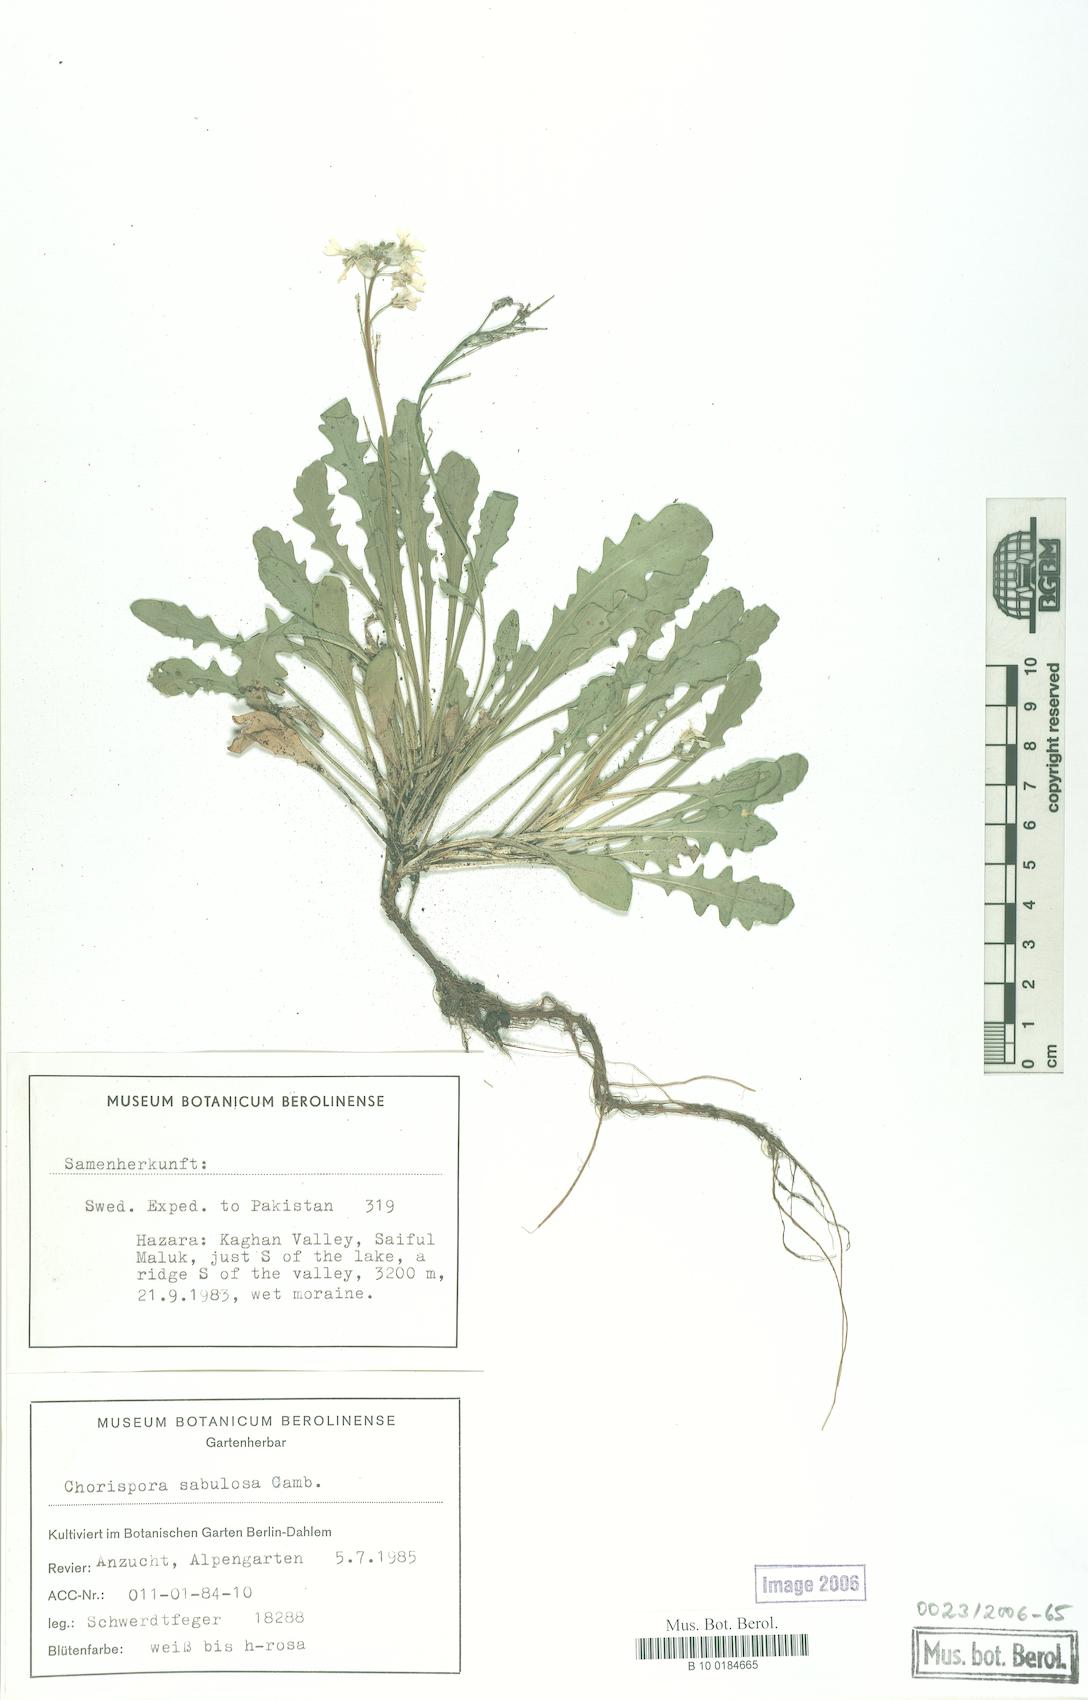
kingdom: Plantae
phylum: Tracheophyta
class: Magnoliopsida
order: Brassicales
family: Brassicaceae
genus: Chorispora
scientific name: Chorispora sabulosa
